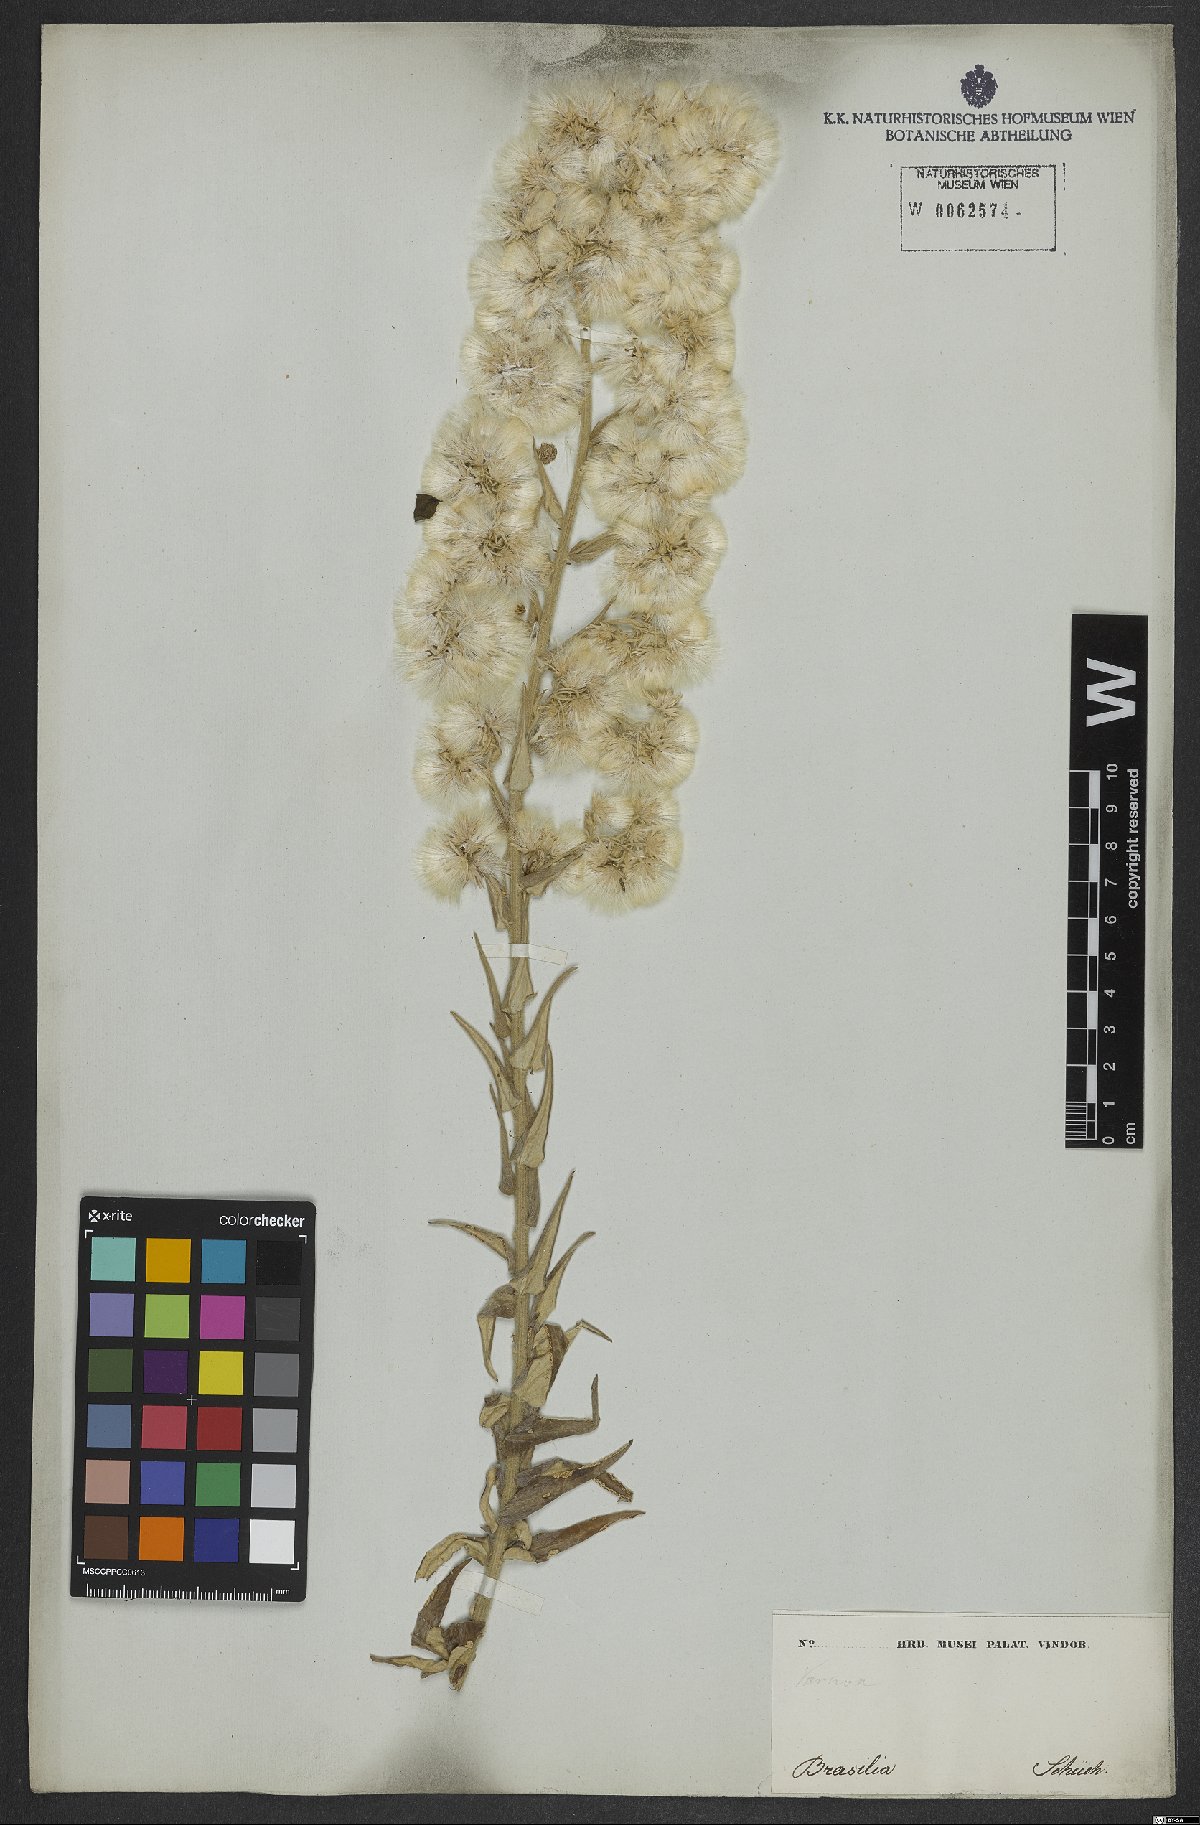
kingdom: Plantae
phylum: Tracheophyta
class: Magnoliopsida
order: Asterales
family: Asteraceae
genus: Baccharis
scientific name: Baccharis helichrysoides
